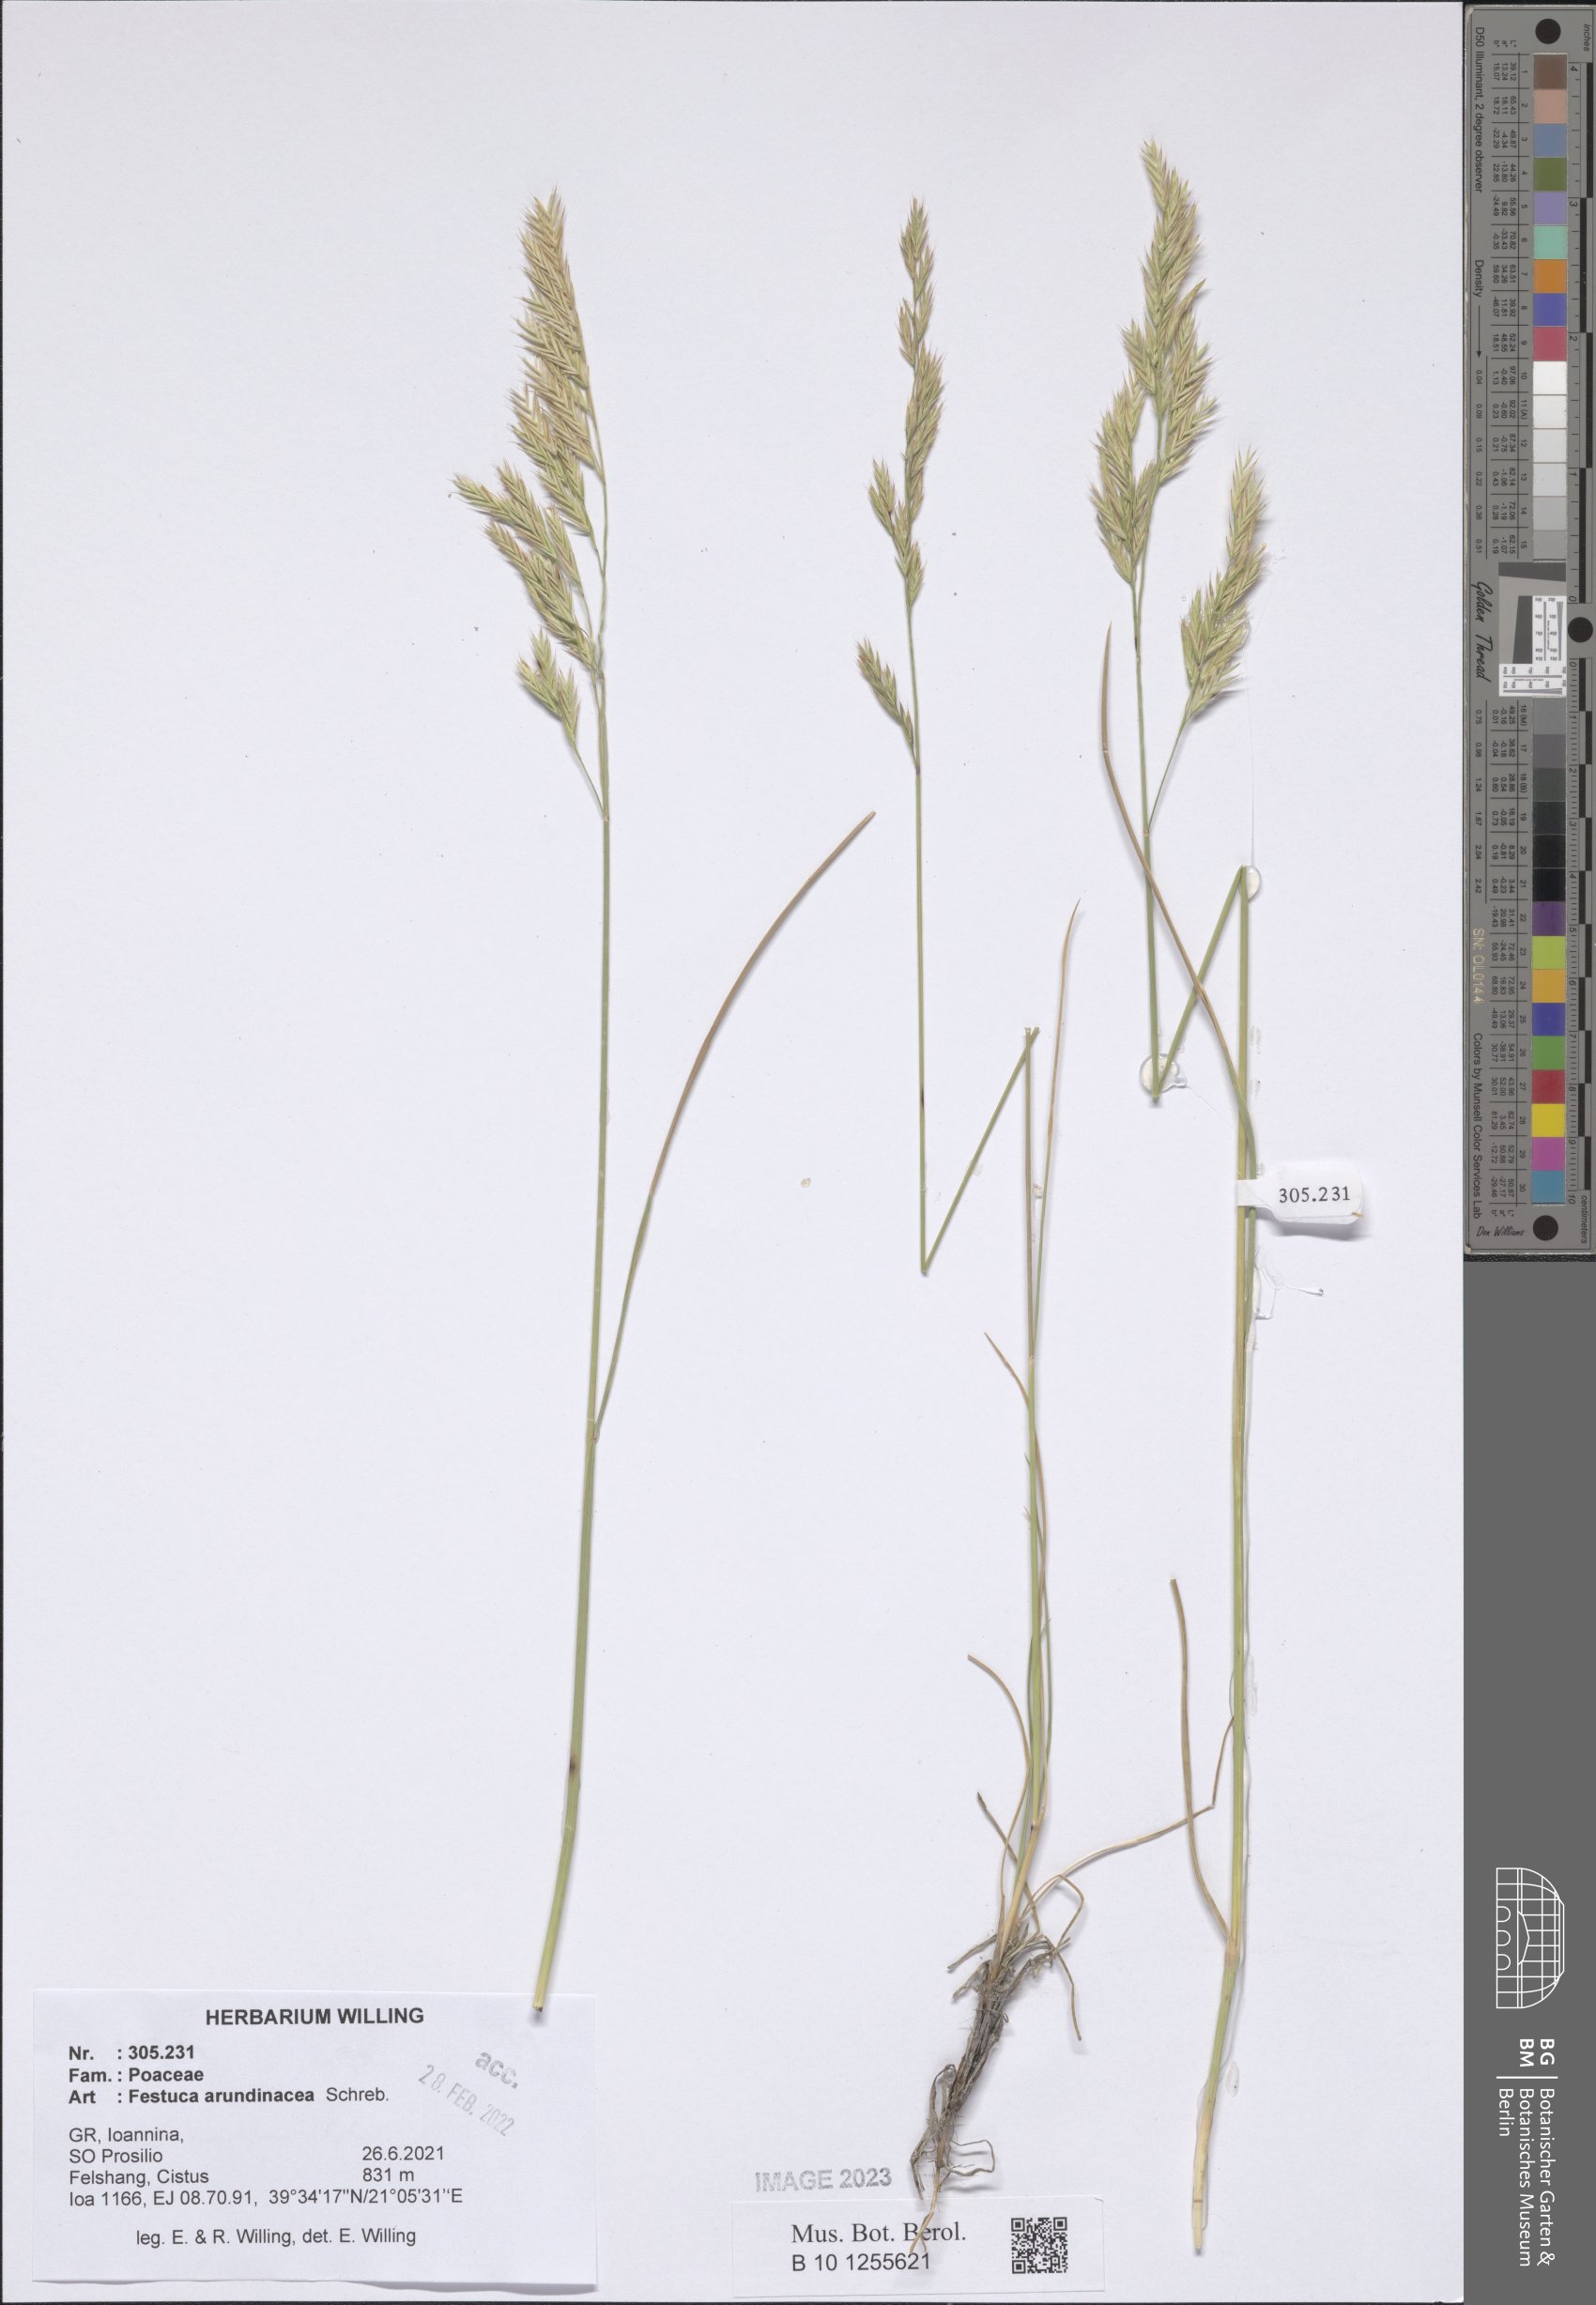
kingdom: Plantae
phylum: Tracheophyta
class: Liliopsida
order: Poales
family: Poaceae
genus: Lolium
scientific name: Lolium arundinaceum
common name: Reed fescue
